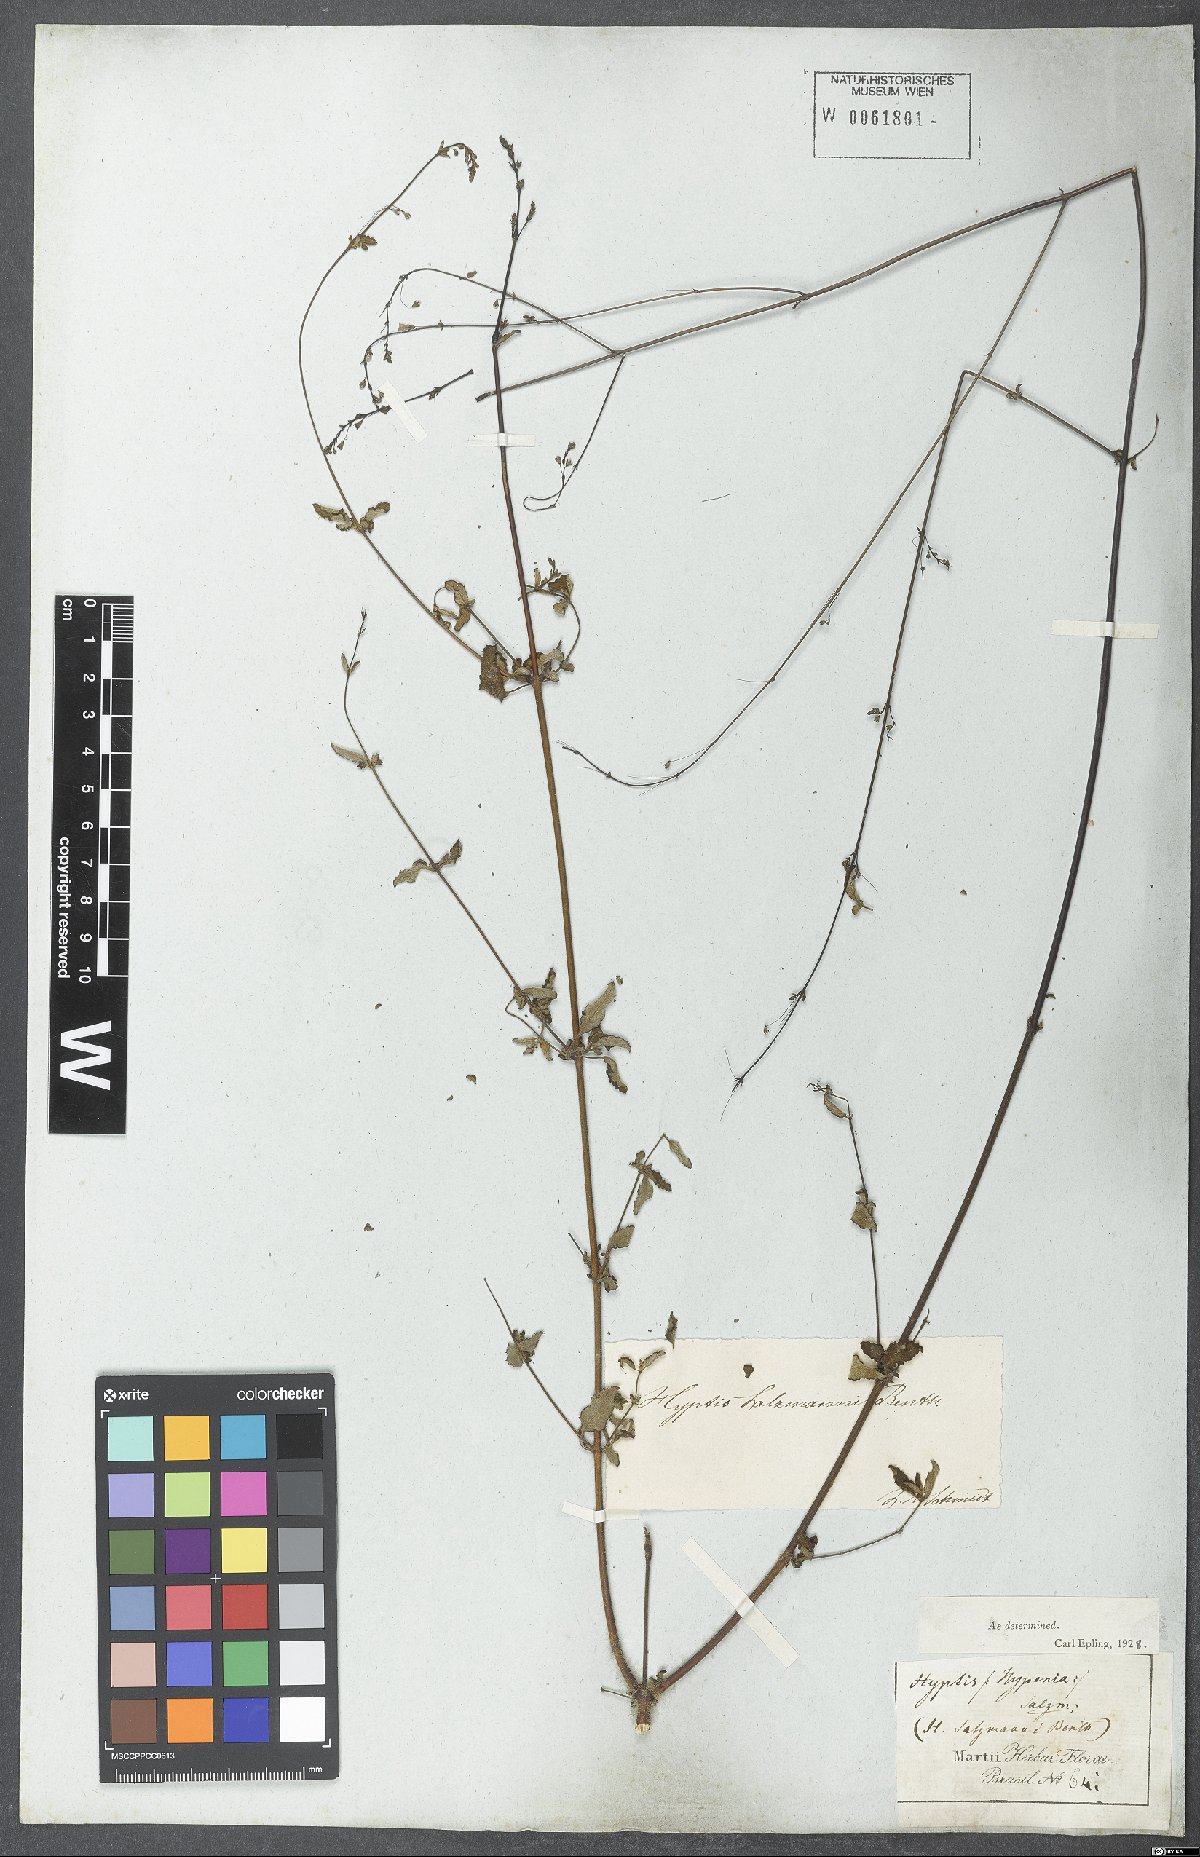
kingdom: Plantae
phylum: Tracheophyta
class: Magnoliopsida
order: Lamiales
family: Lamiaceae
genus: Hypenia
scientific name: Hypenia salzmannii
